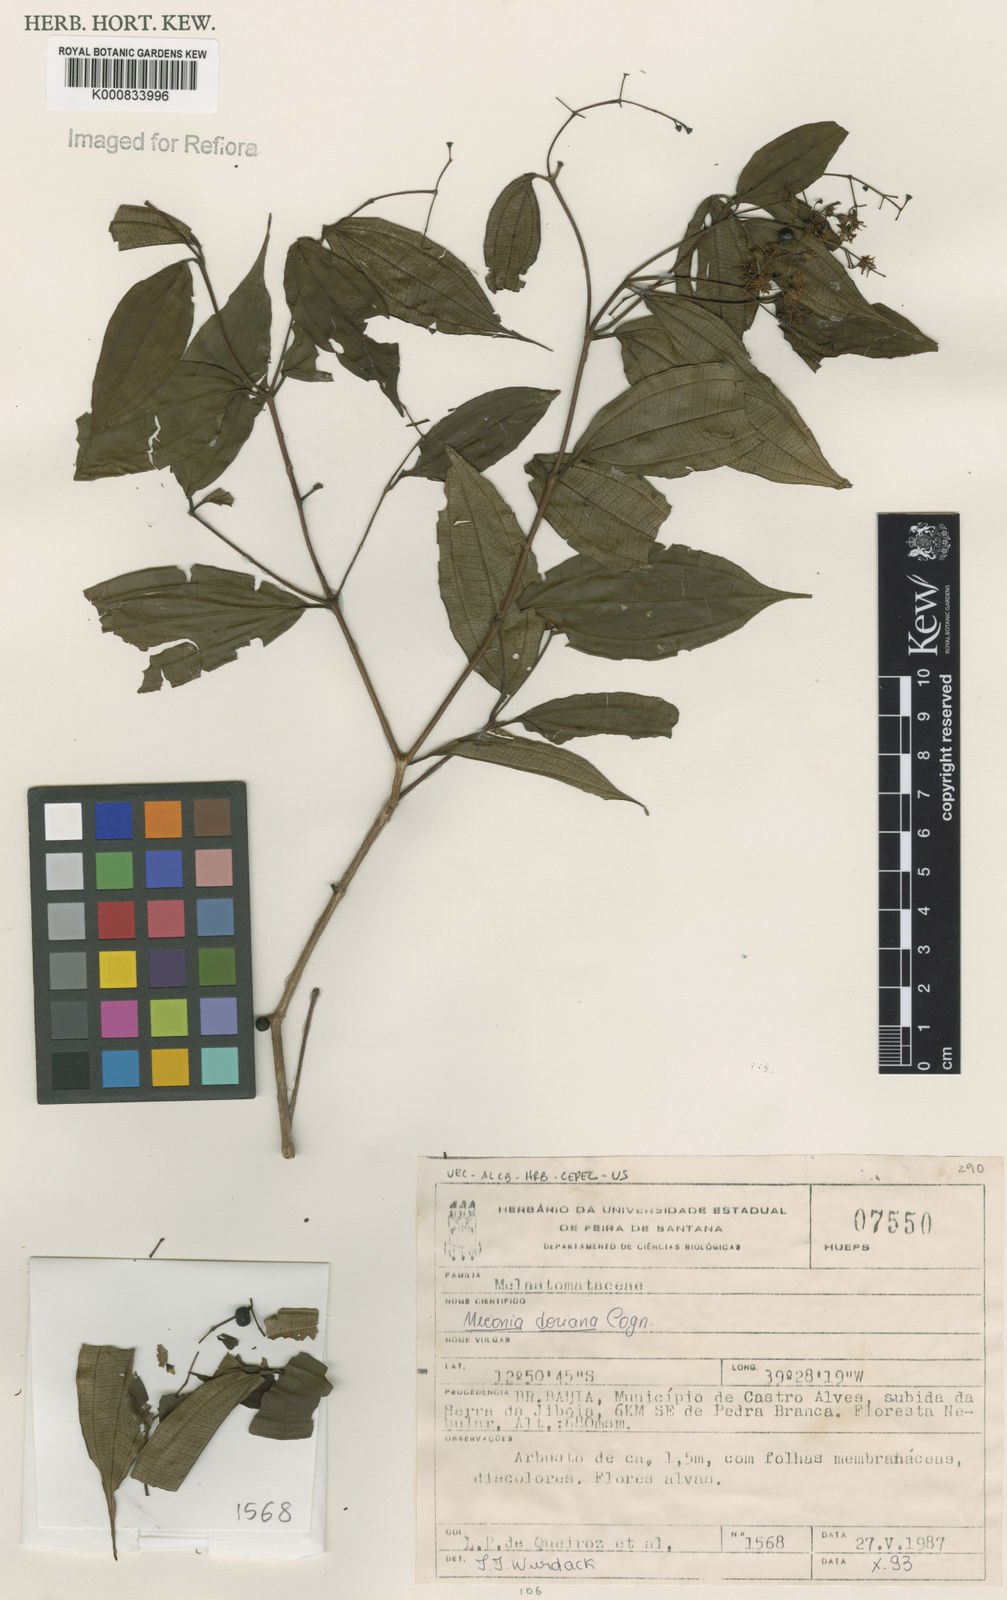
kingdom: Plantae
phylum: Tracheophyta
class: Magnoliopsida
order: Myrtales
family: Melastomataceae
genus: Miconia
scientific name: Miconia doriana
